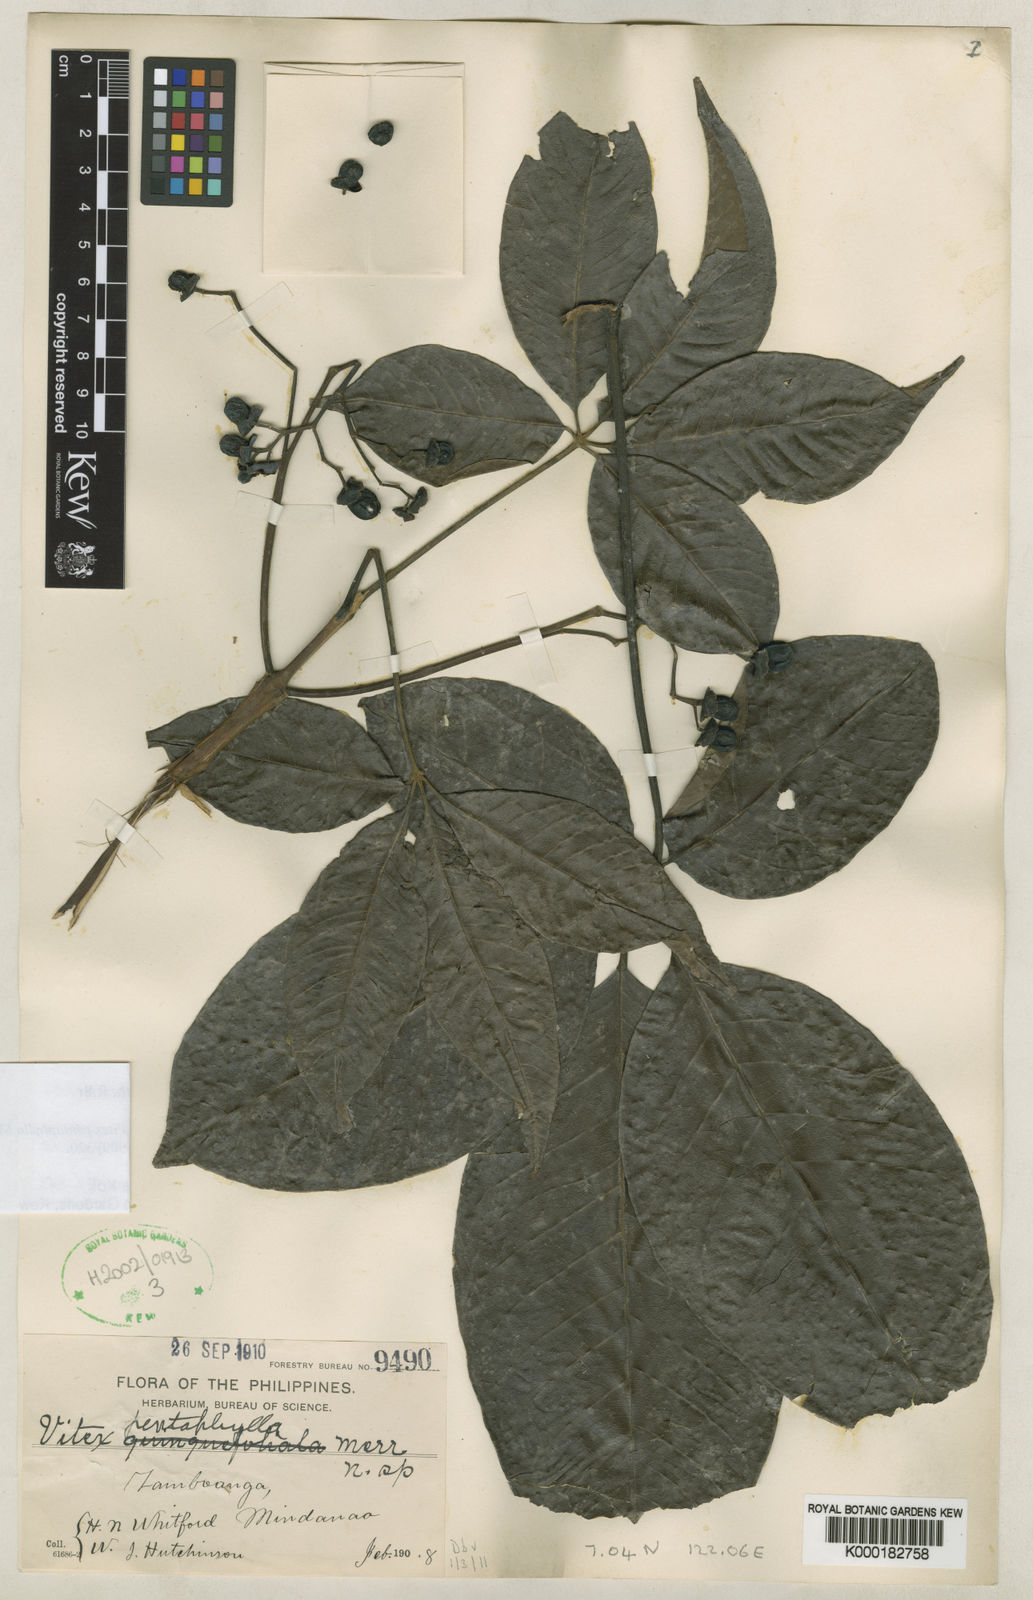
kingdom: Plantae
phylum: Tracheophyta
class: Magnoliopsida
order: Lamiales
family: Lamiaceae
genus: Vitex
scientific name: Vitex glabrata
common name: Smooth chastetree
